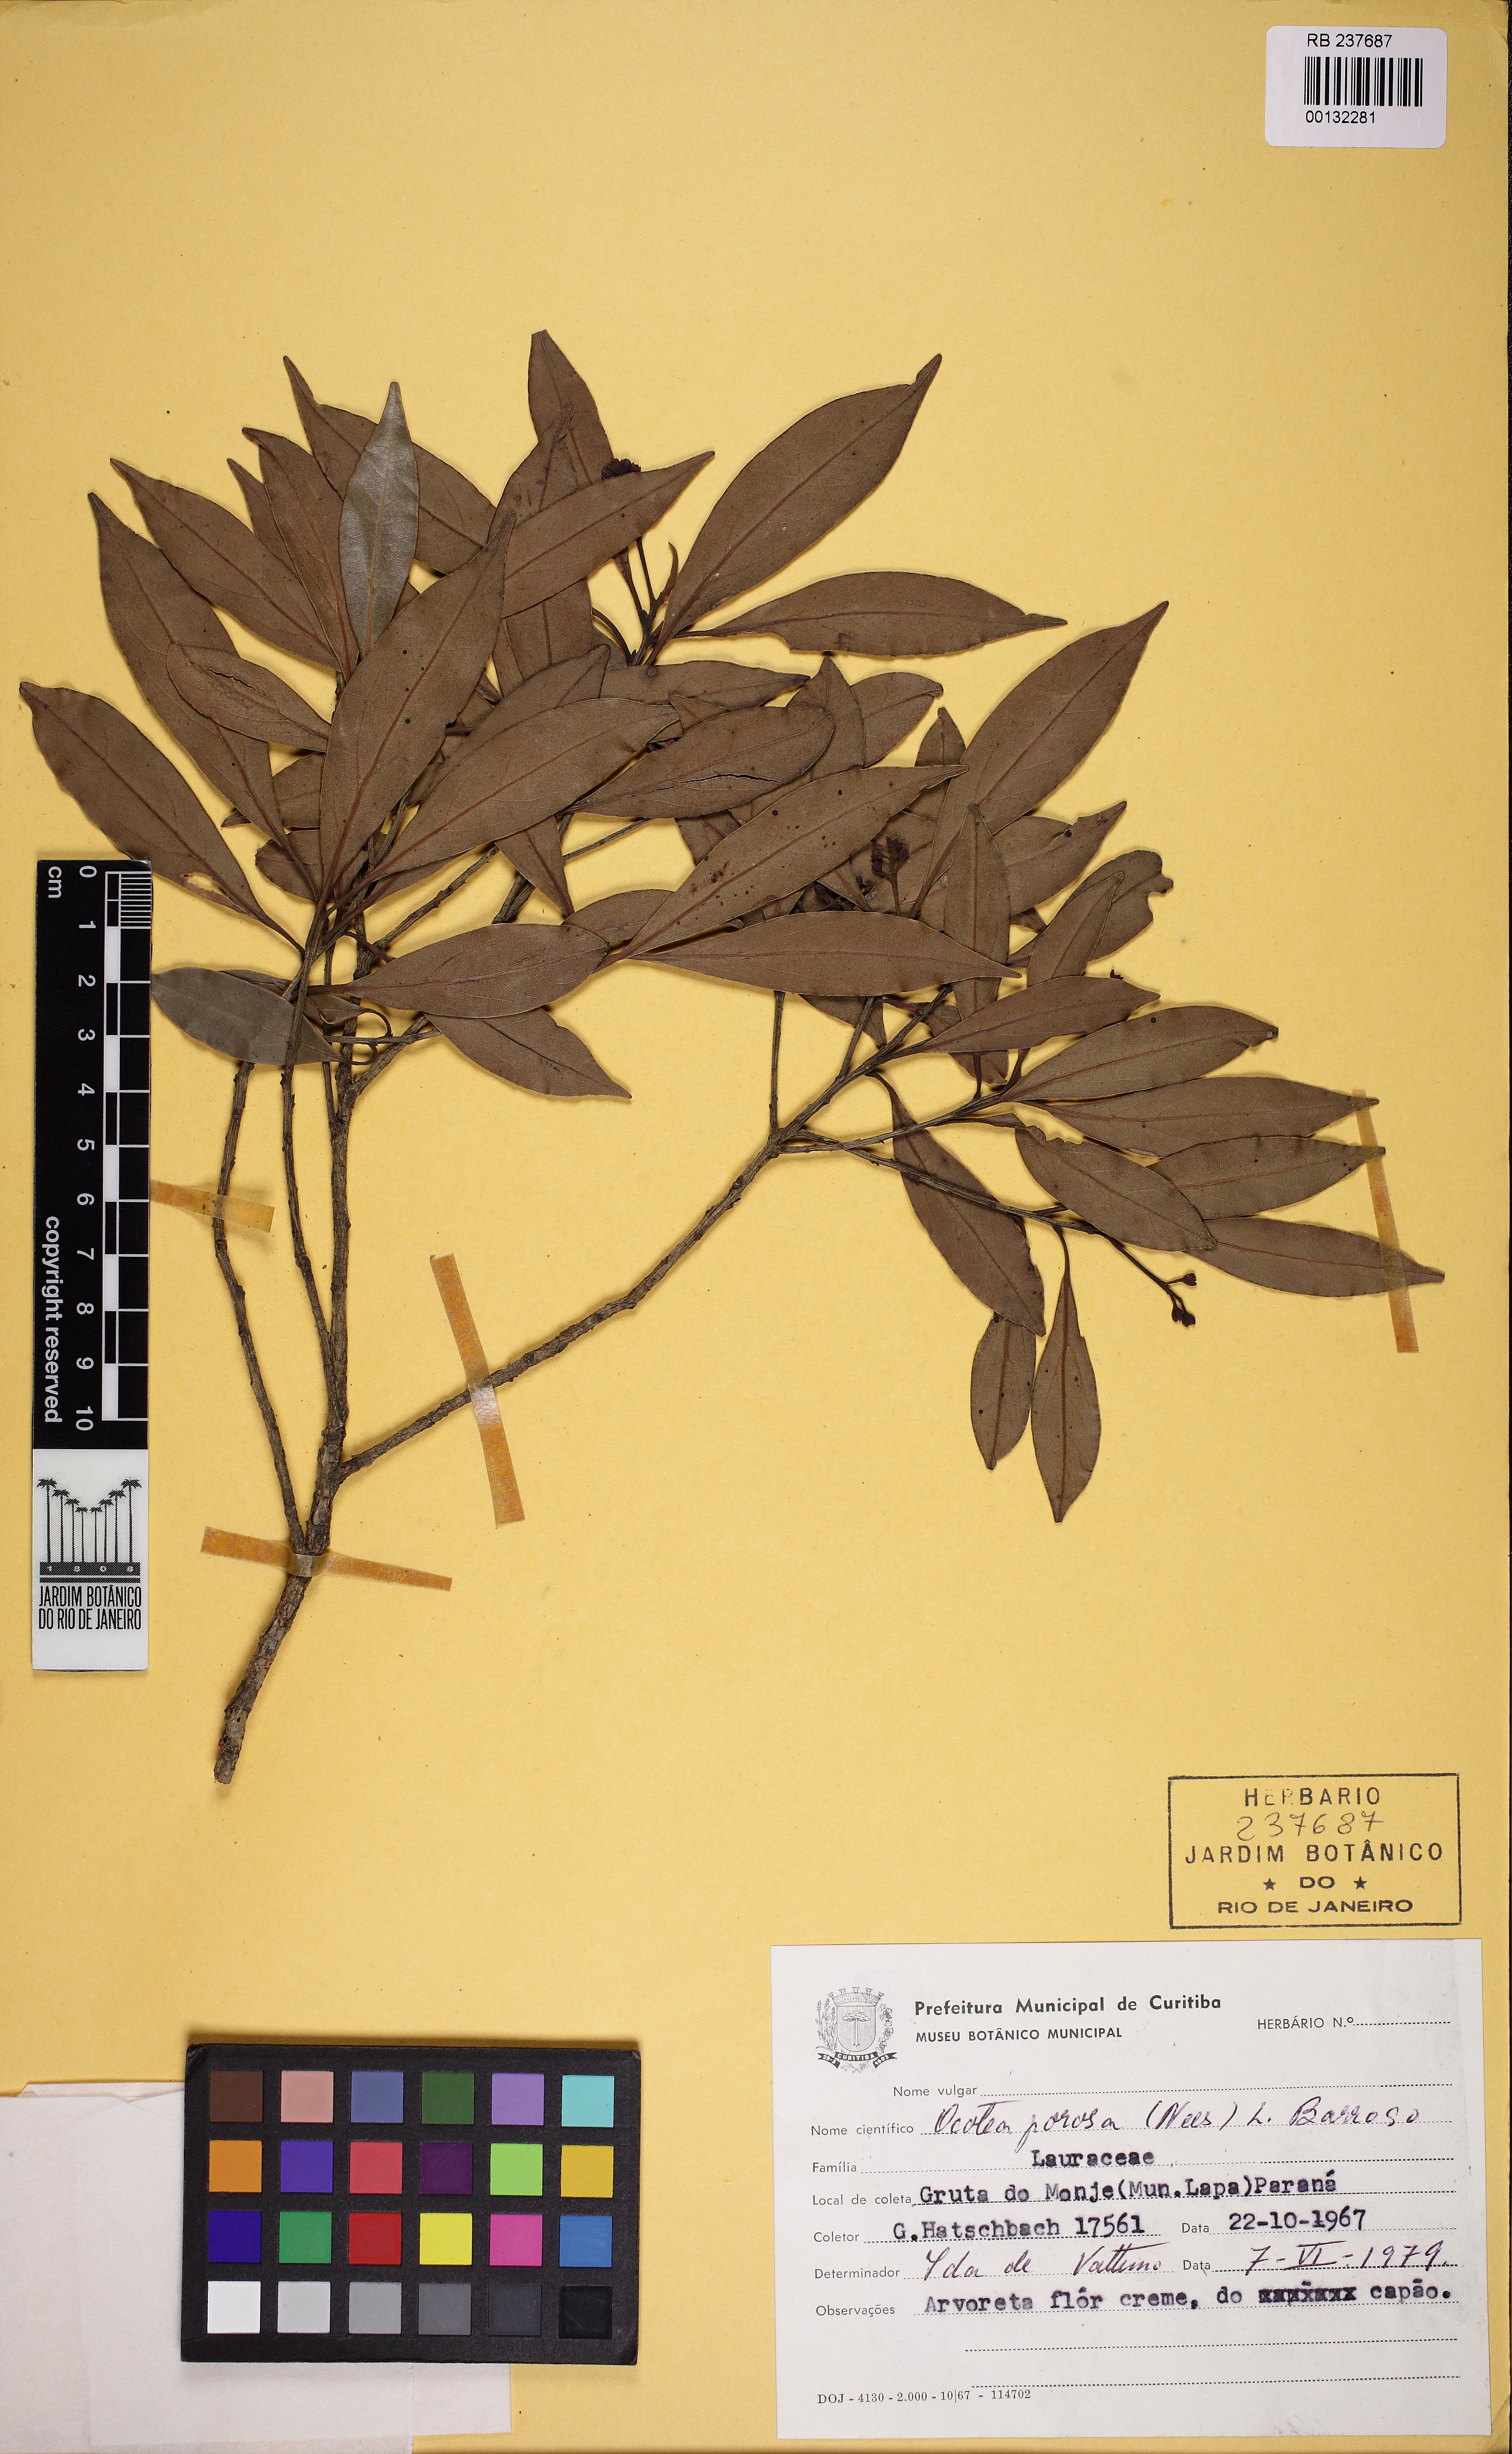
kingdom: Plantae
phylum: Tracheophyta
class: Magnoliopsida
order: Laurales
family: Lauraceae
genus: Ocotea
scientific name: Ocotea porosa
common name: Brazilian-walnut
